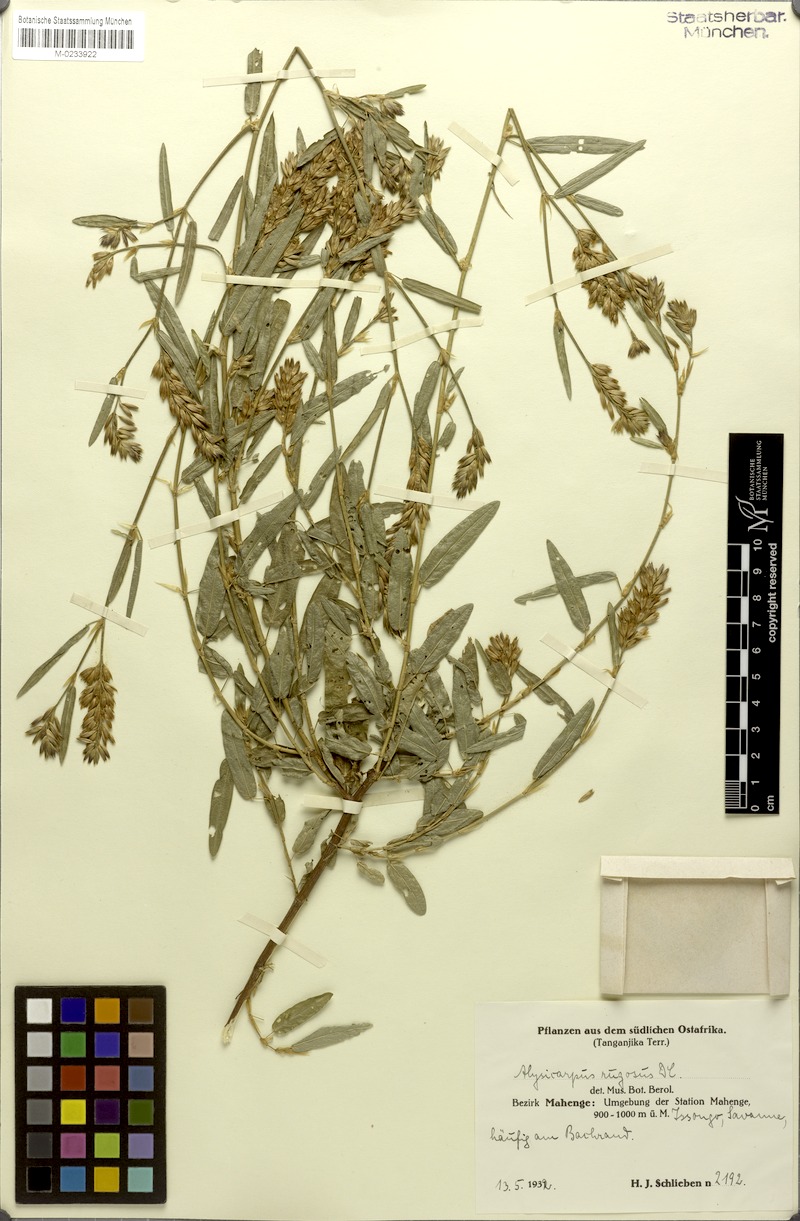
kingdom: Plantae
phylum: Tracheophyta
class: Magnoliopsida
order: Fabales
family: Fabaceae
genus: Alysicarpus
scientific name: Alysicarpus rugosus
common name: Red moneywort
